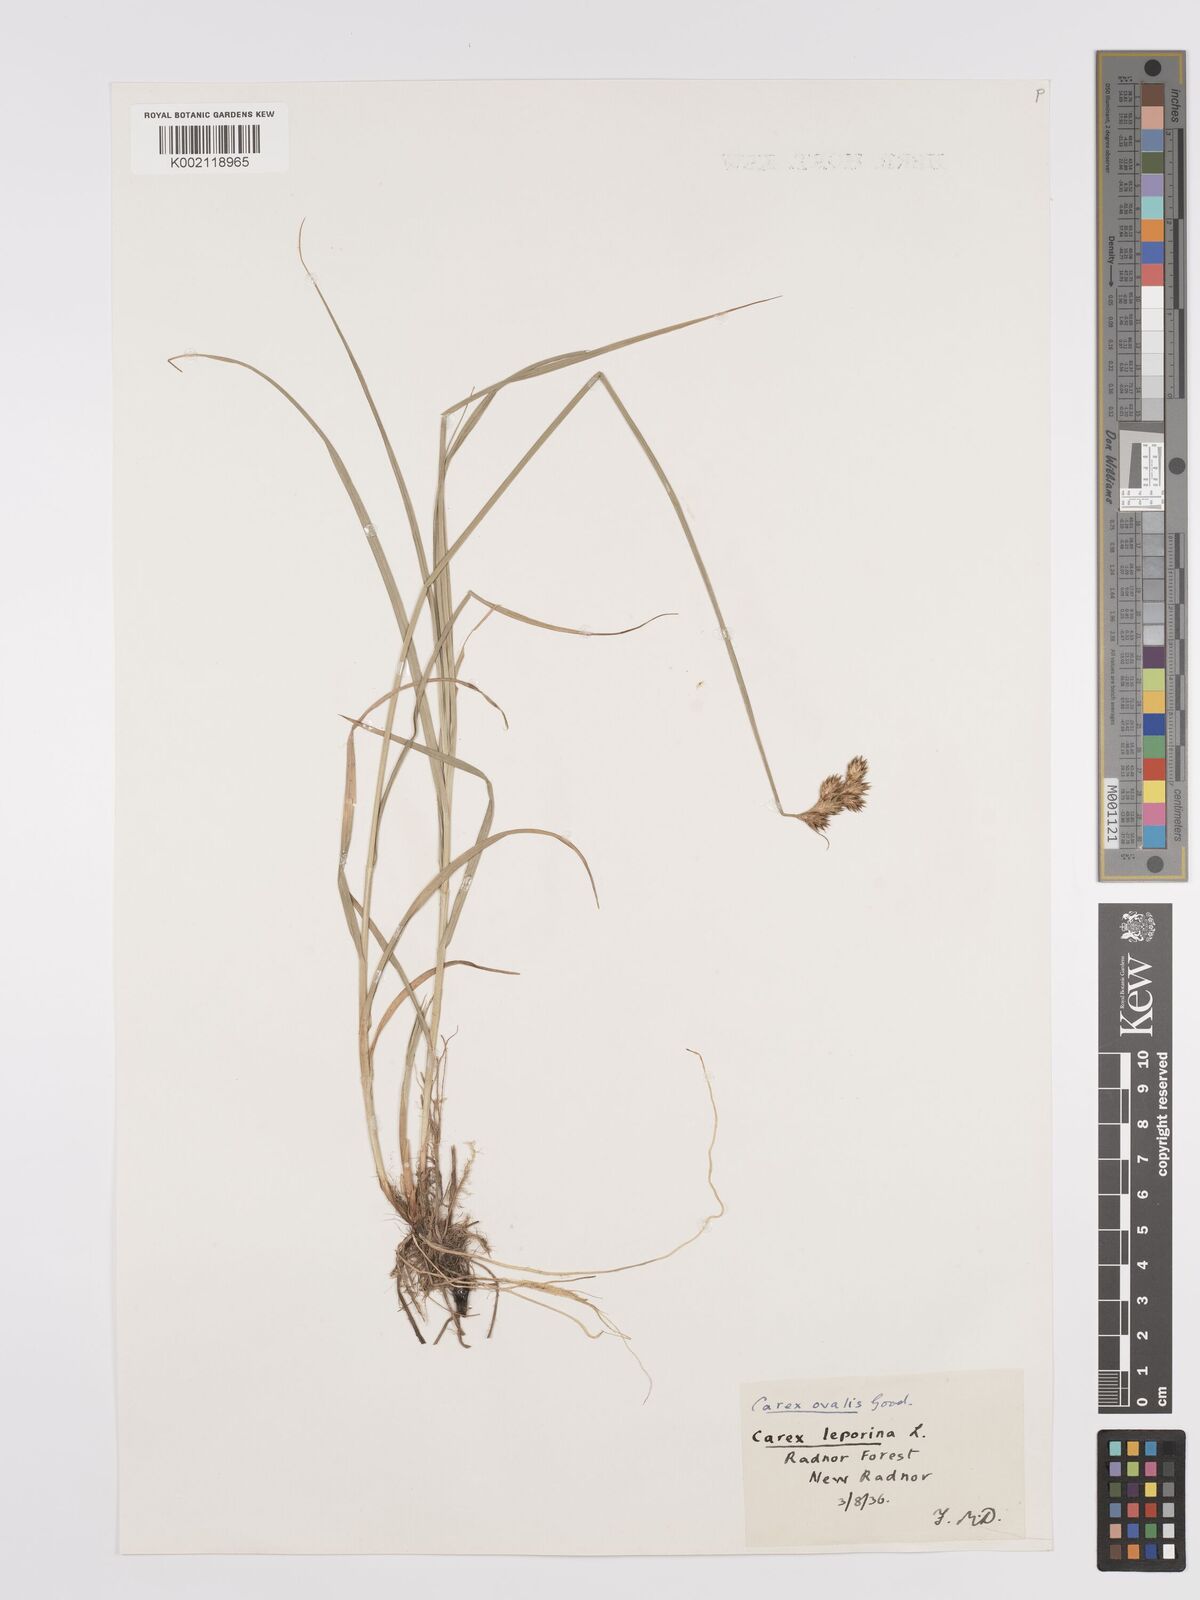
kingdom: Plantae
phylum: Tracheophyta
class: Liliopsida
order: Poales
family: Cyperaceae
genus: Carex
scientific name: Carex leporina
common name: Oval sedge
